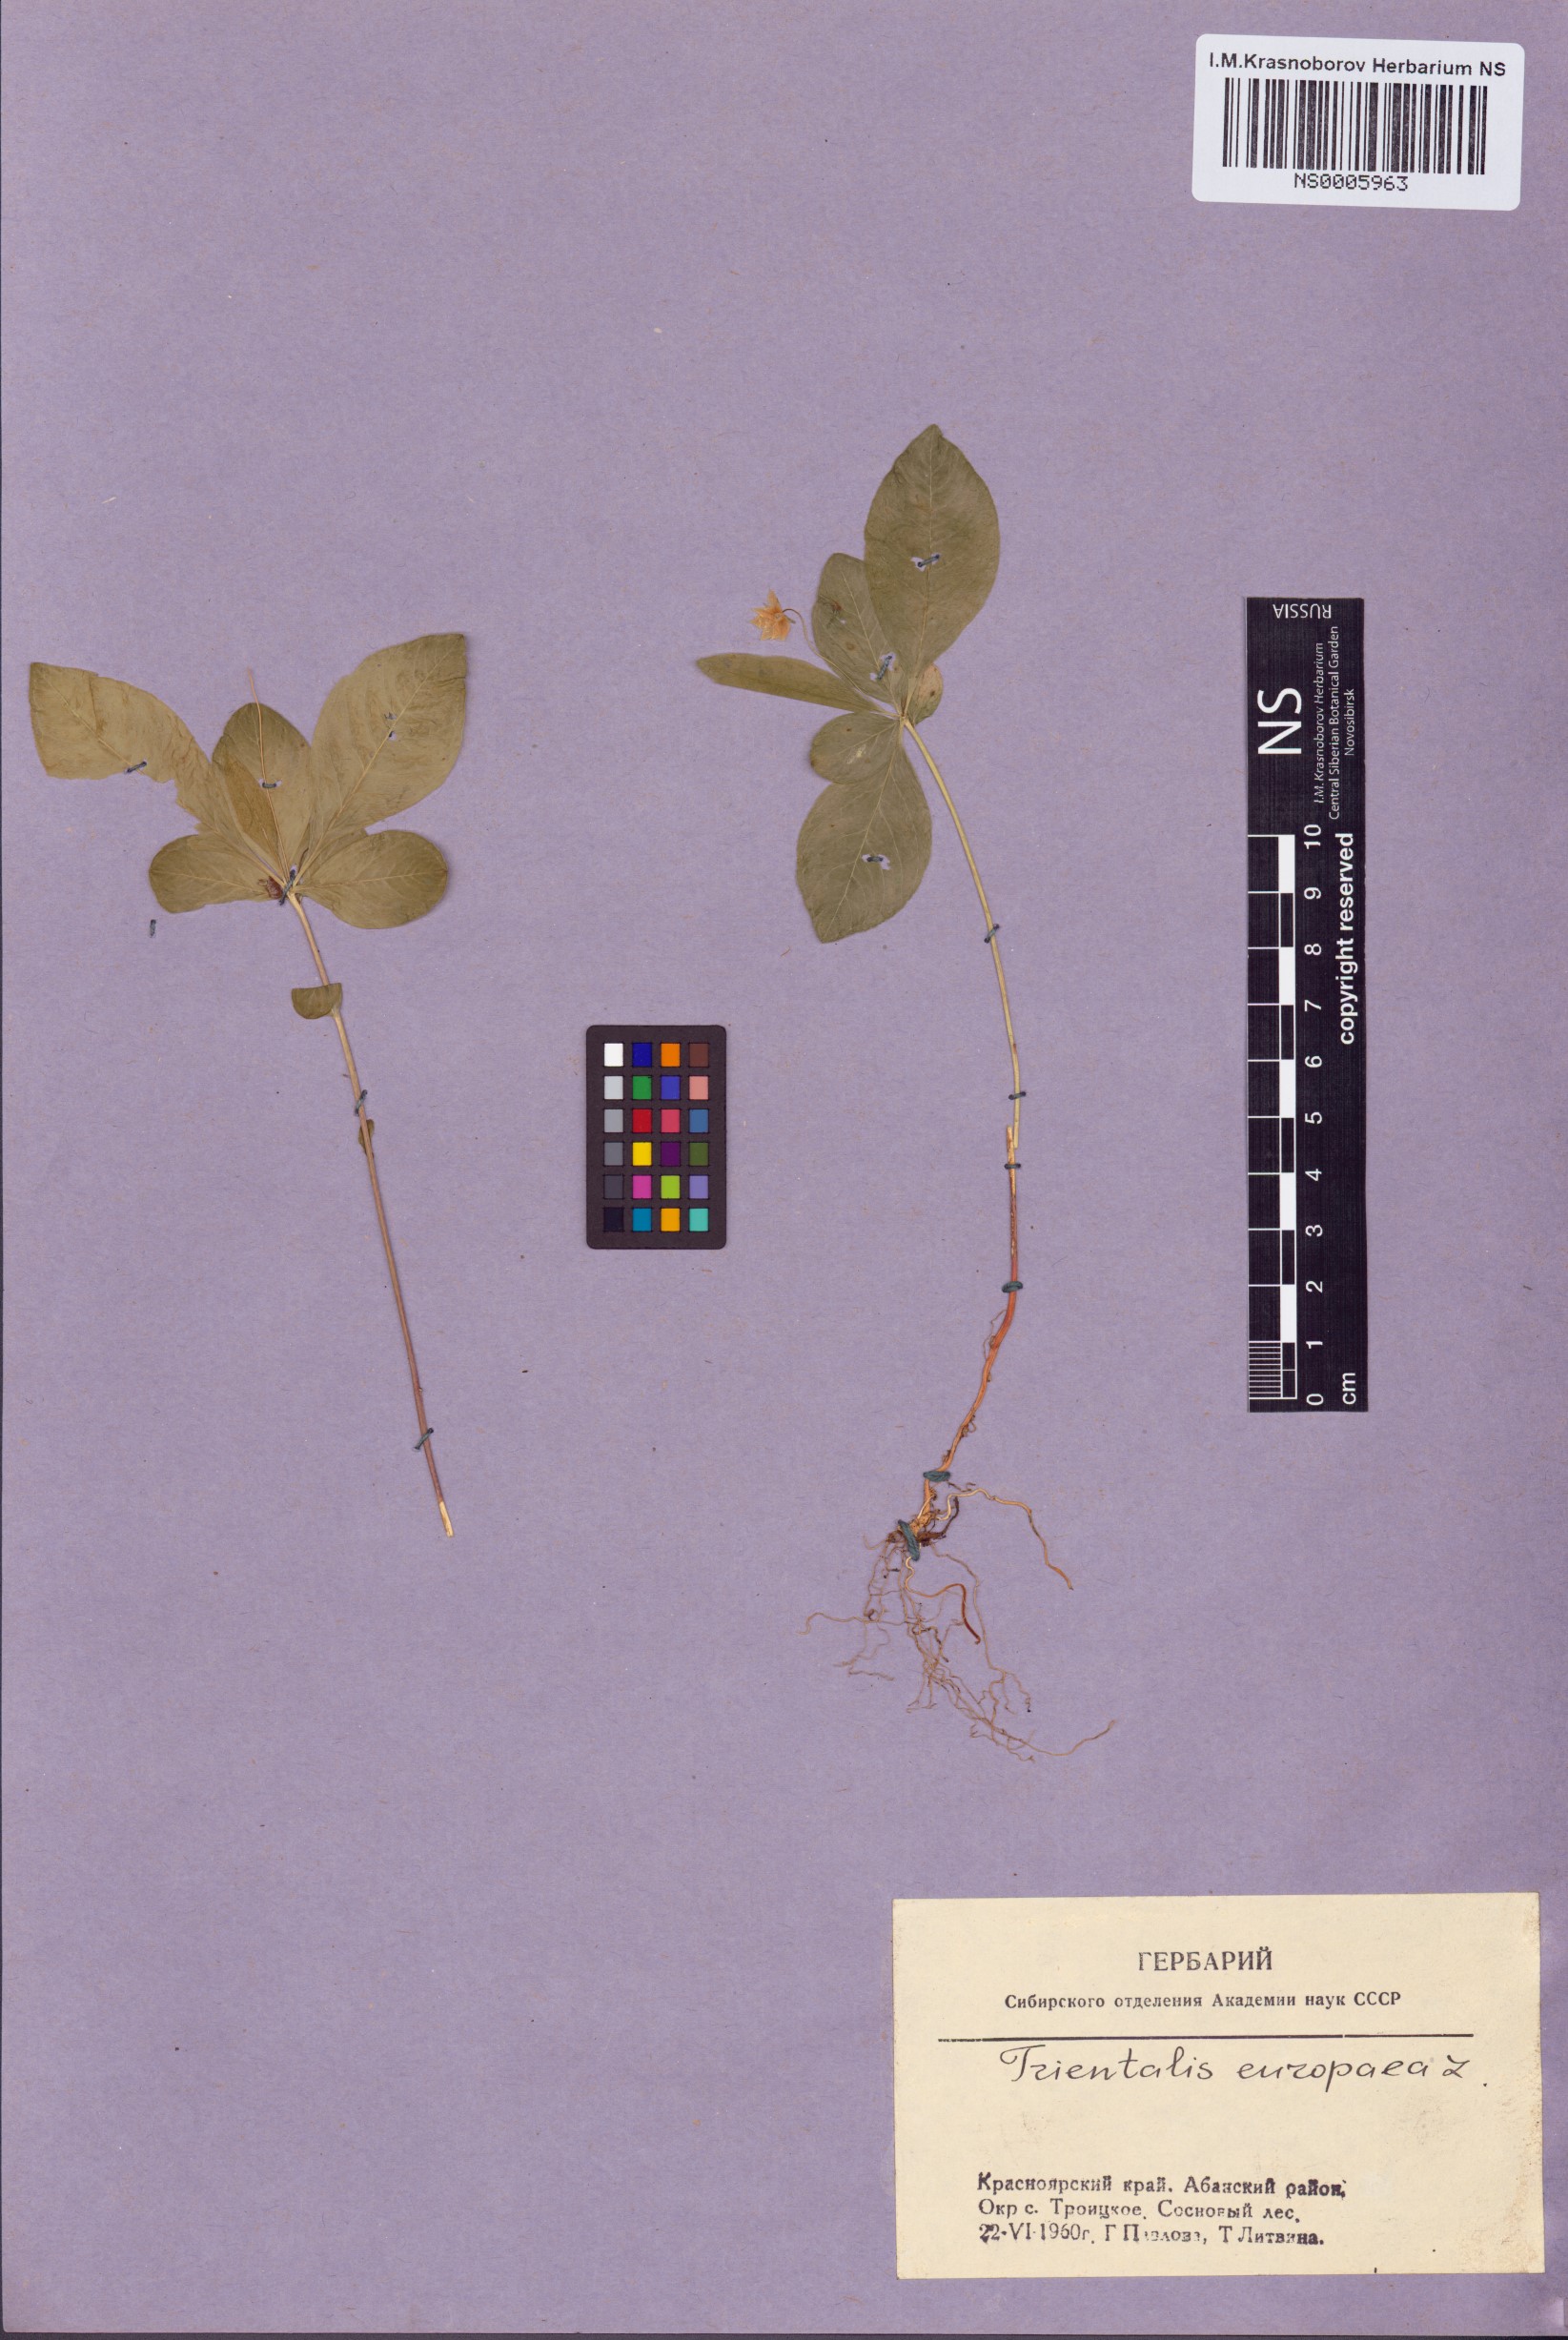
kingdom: Plantae
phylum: Tracheophyta
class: Magnoliopsida
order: Ericales
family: Primulaceae
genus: Lysimachia
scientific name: Lysimachia europaea
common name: Arctic starflower
